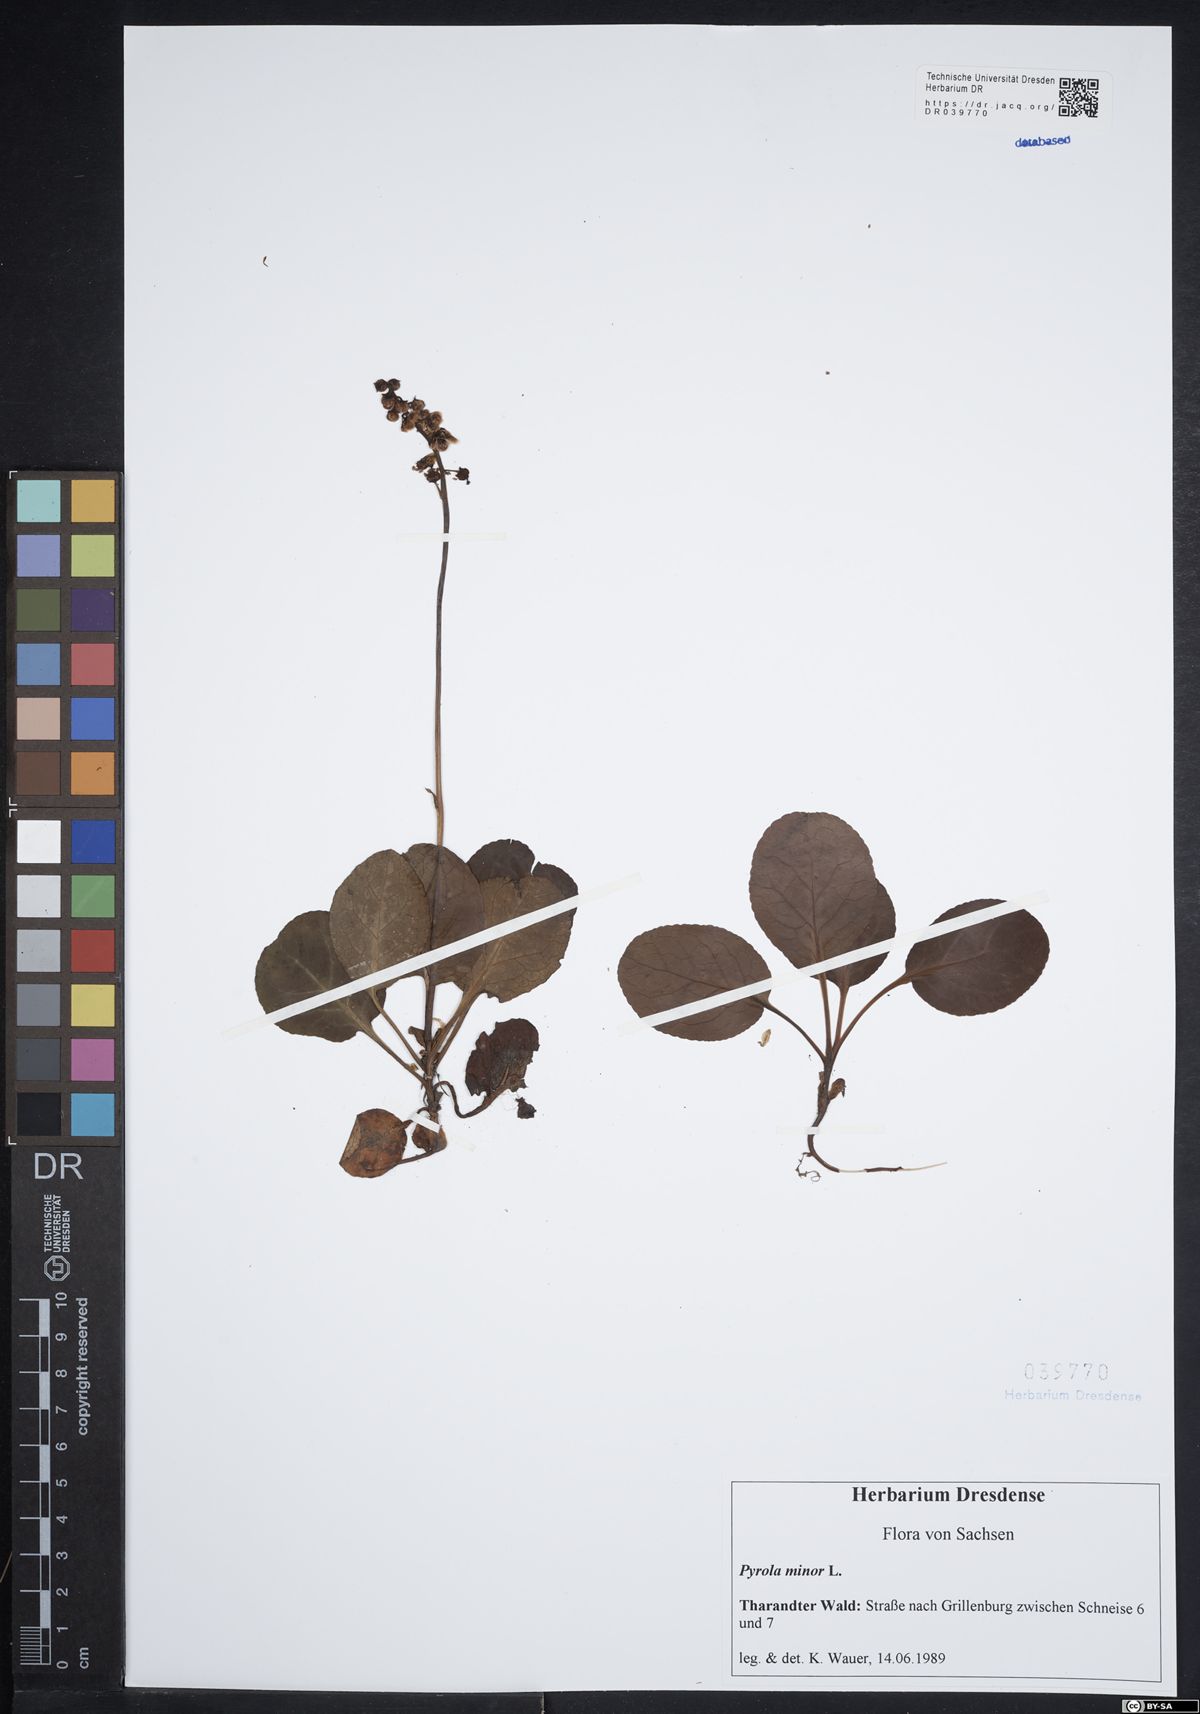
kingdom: Plantae
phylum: Tracheophyta
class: Magnoliopsida
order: Ericales
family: Ericaceae
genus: Pyrola
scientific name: Pyrola minor
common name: Common wintergreen
